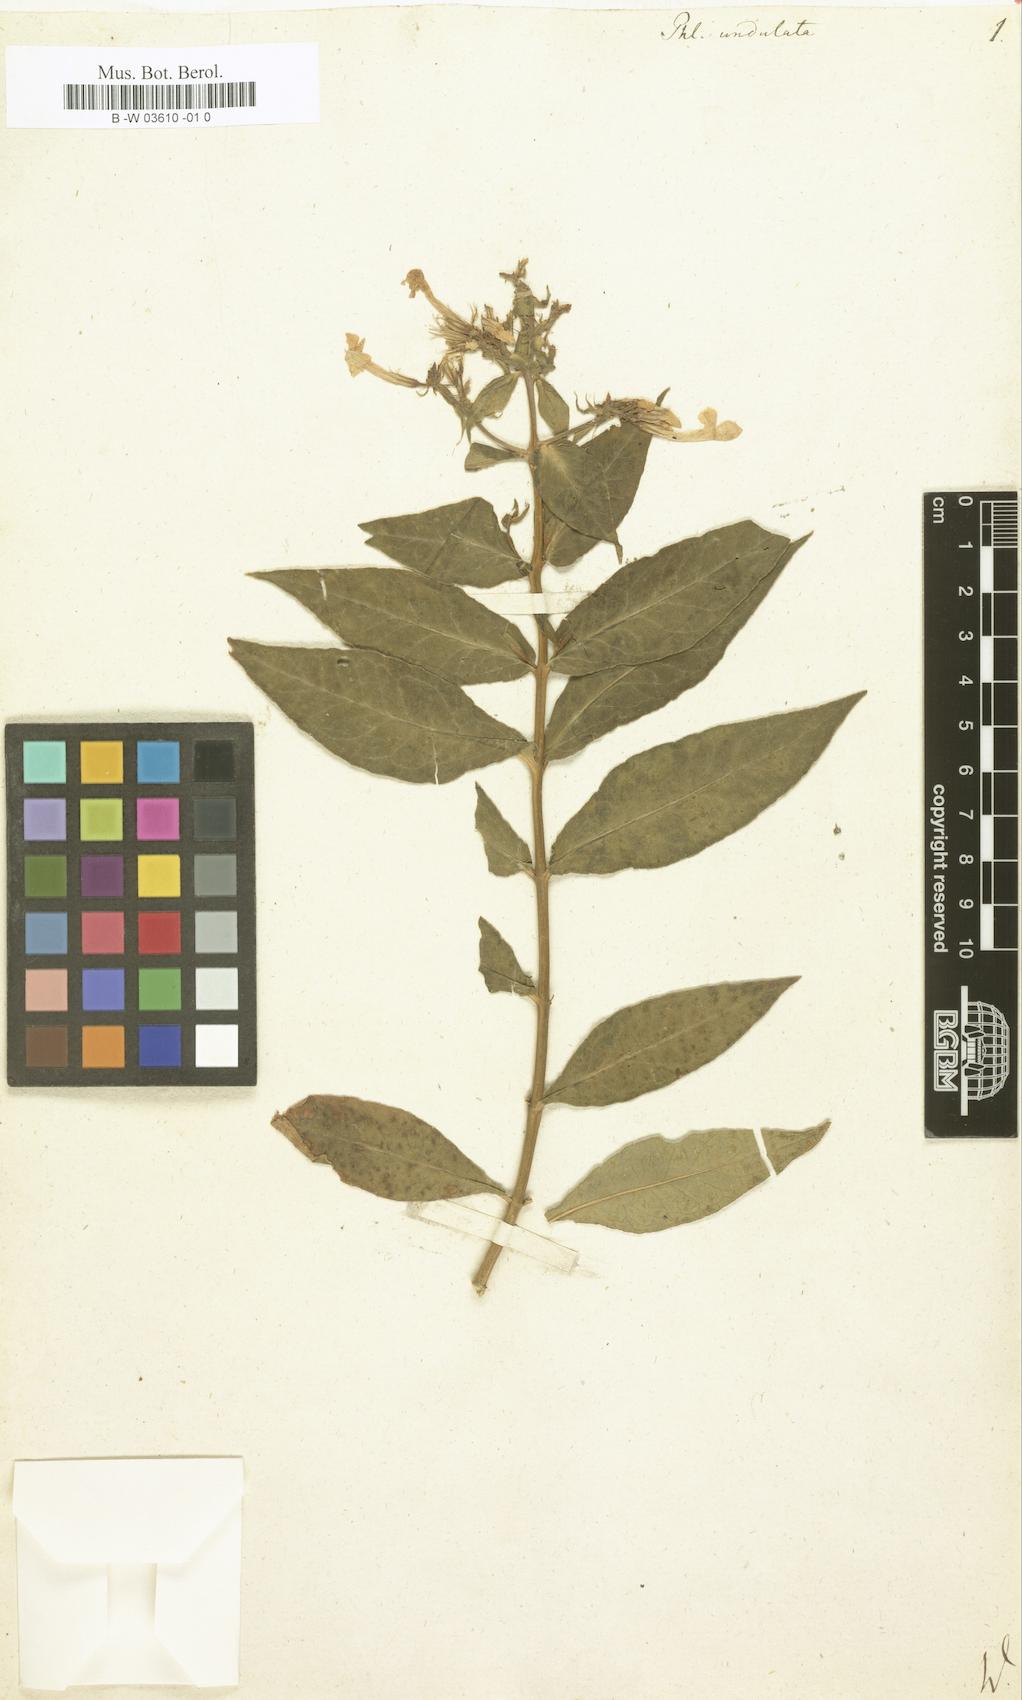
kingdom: Plantae
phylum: Tracheophyta
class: Magnoliopsida
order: Ericales
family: Polemoniaceae
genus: Phlox
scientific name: Phlox paniculata
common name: Fall phlox
